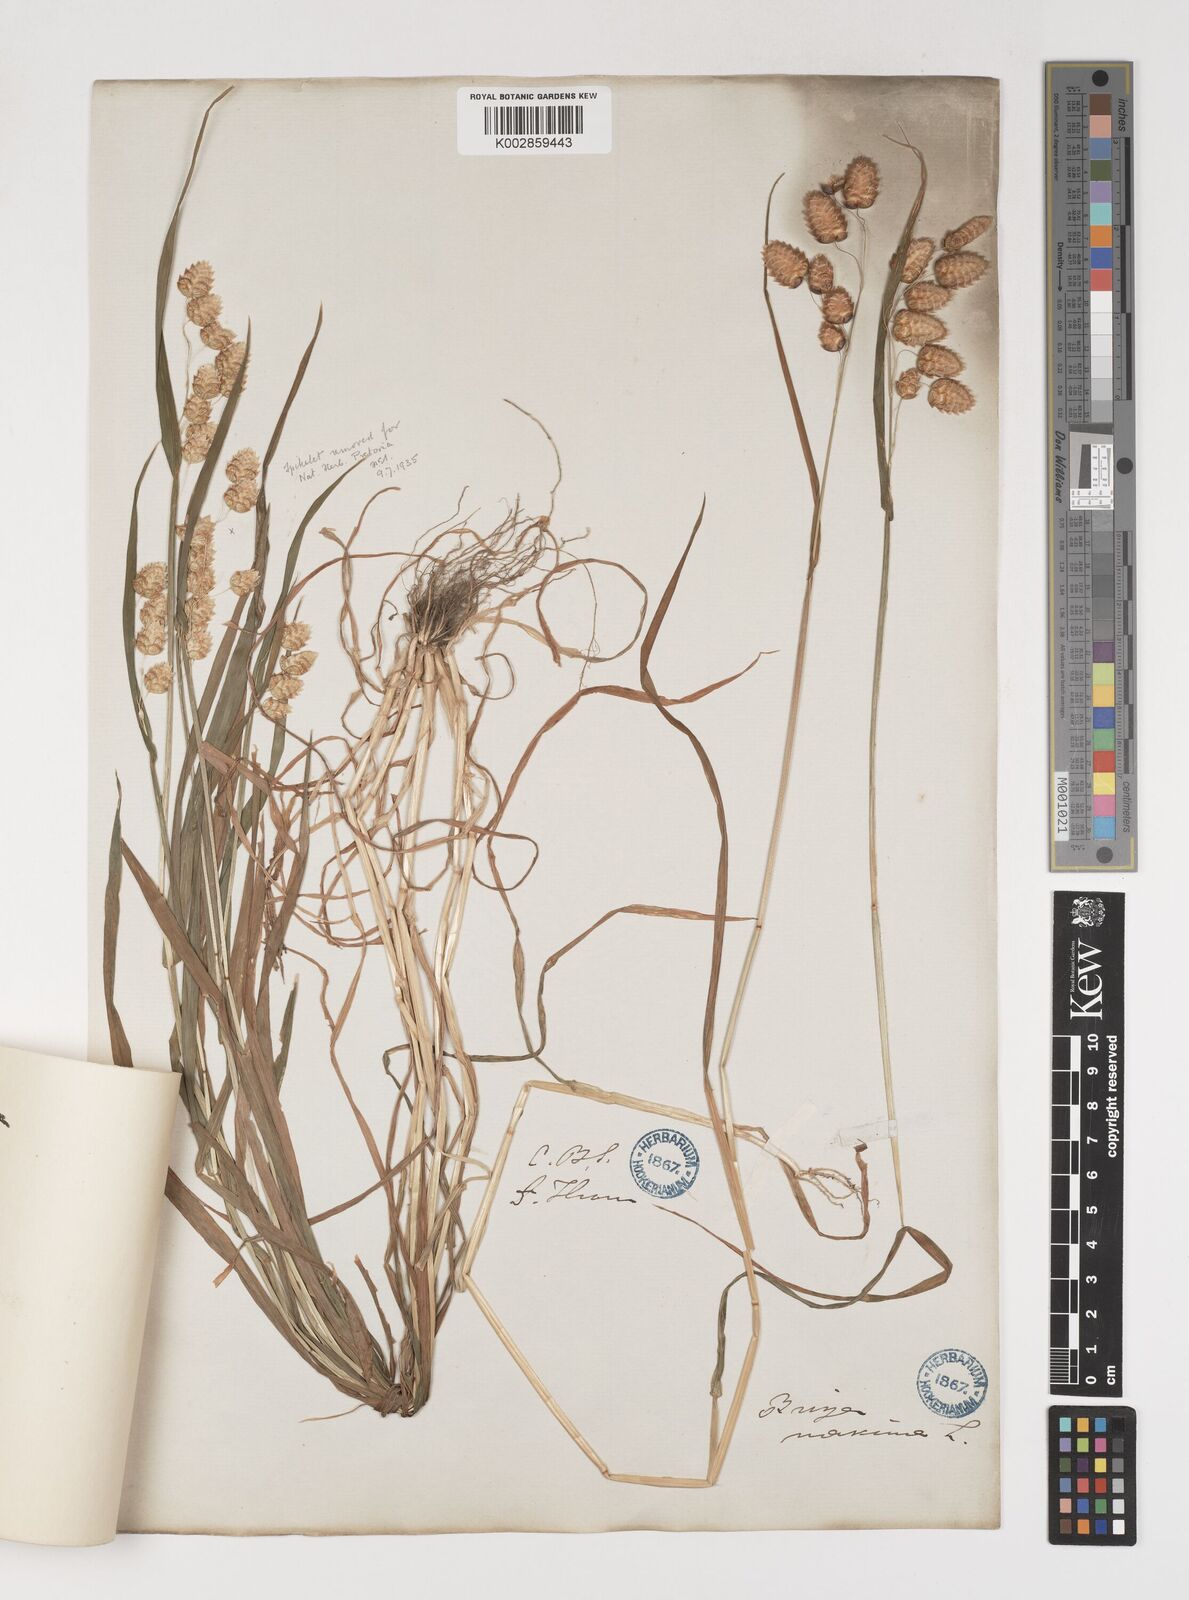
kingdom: Plantae
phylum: Tracheophyta
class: Liliopsida
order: Poales
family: Poaceae
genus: Briza
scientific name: Briza maxima
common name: Big quakinggrass
